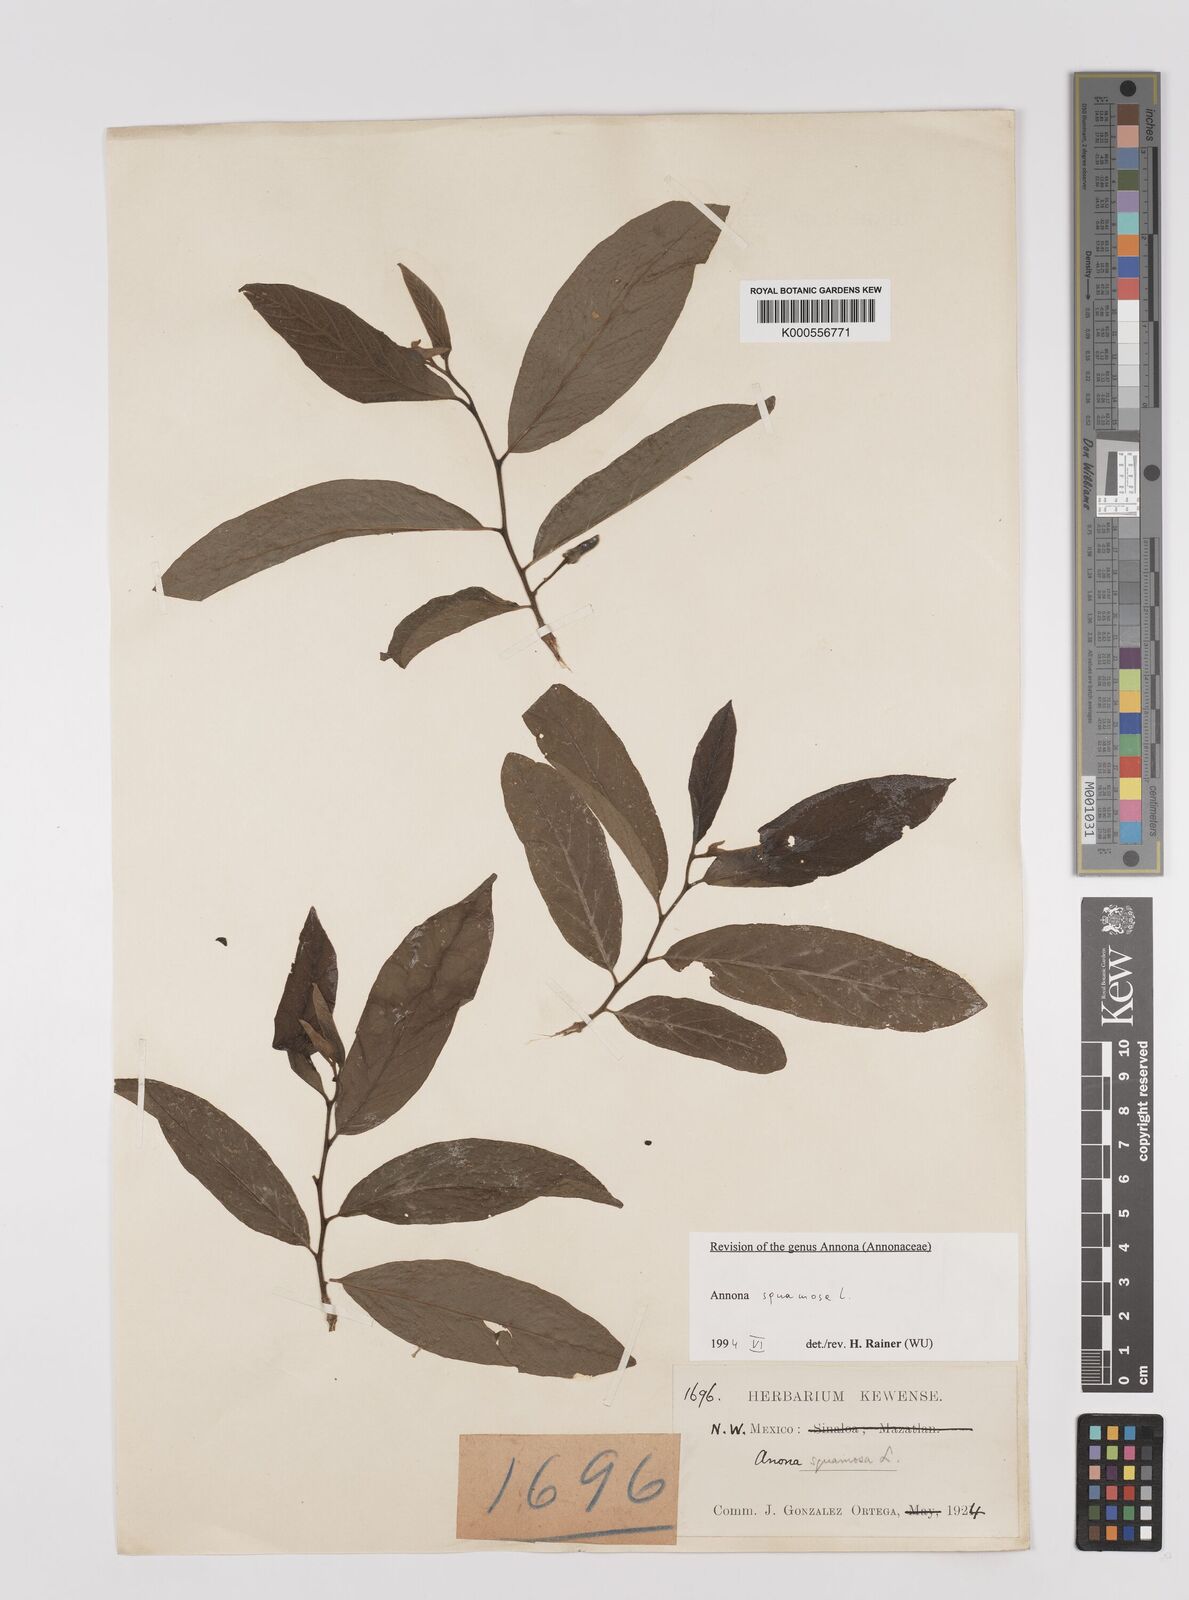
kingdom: Plantae
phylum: Tracheophyta
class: Magnoliopsida
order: Magnoliales
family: Annonaceae
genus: Annona
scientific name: Annona squamosa
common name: Custard-apple
